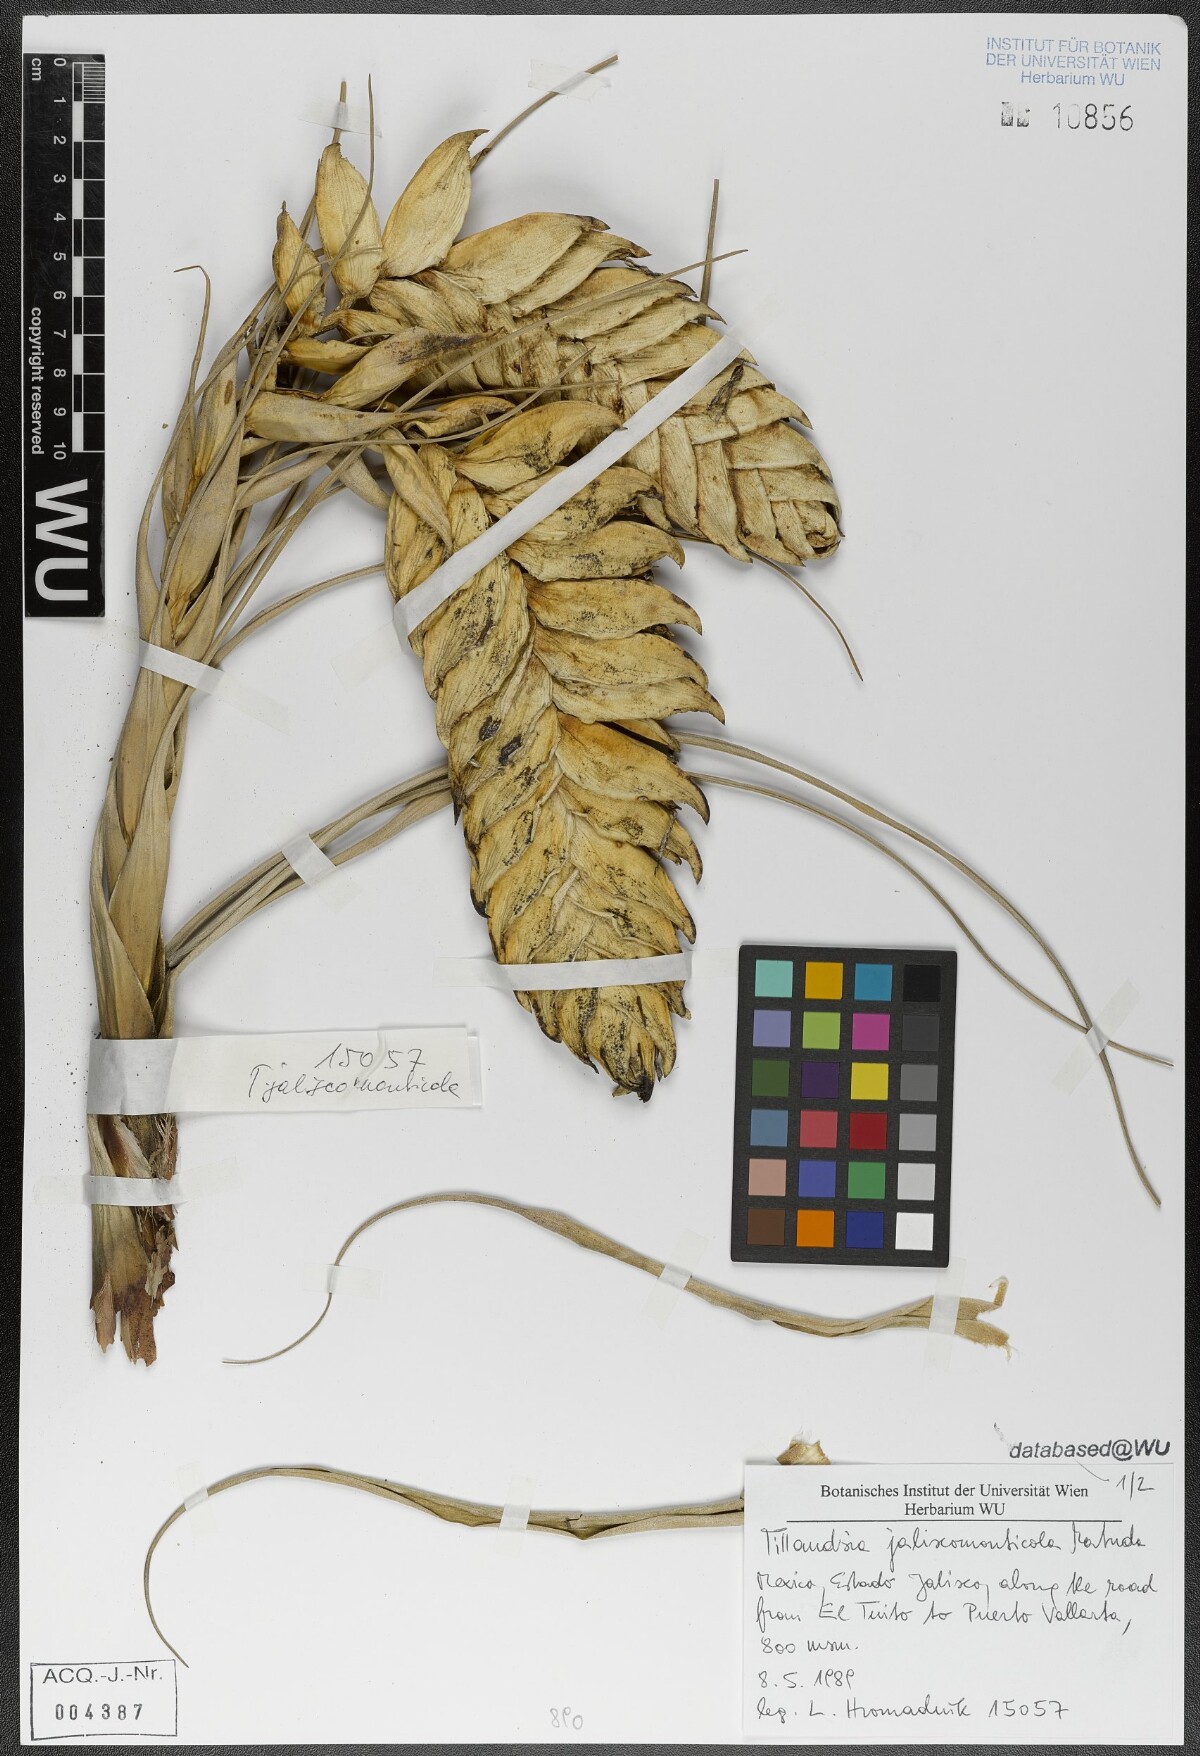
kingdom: Plantae
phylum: Tracheophyta
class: Liliopsida
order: Poales
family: Bromeliaceae
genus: Tillandsia
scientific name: Tillandsia compressa
